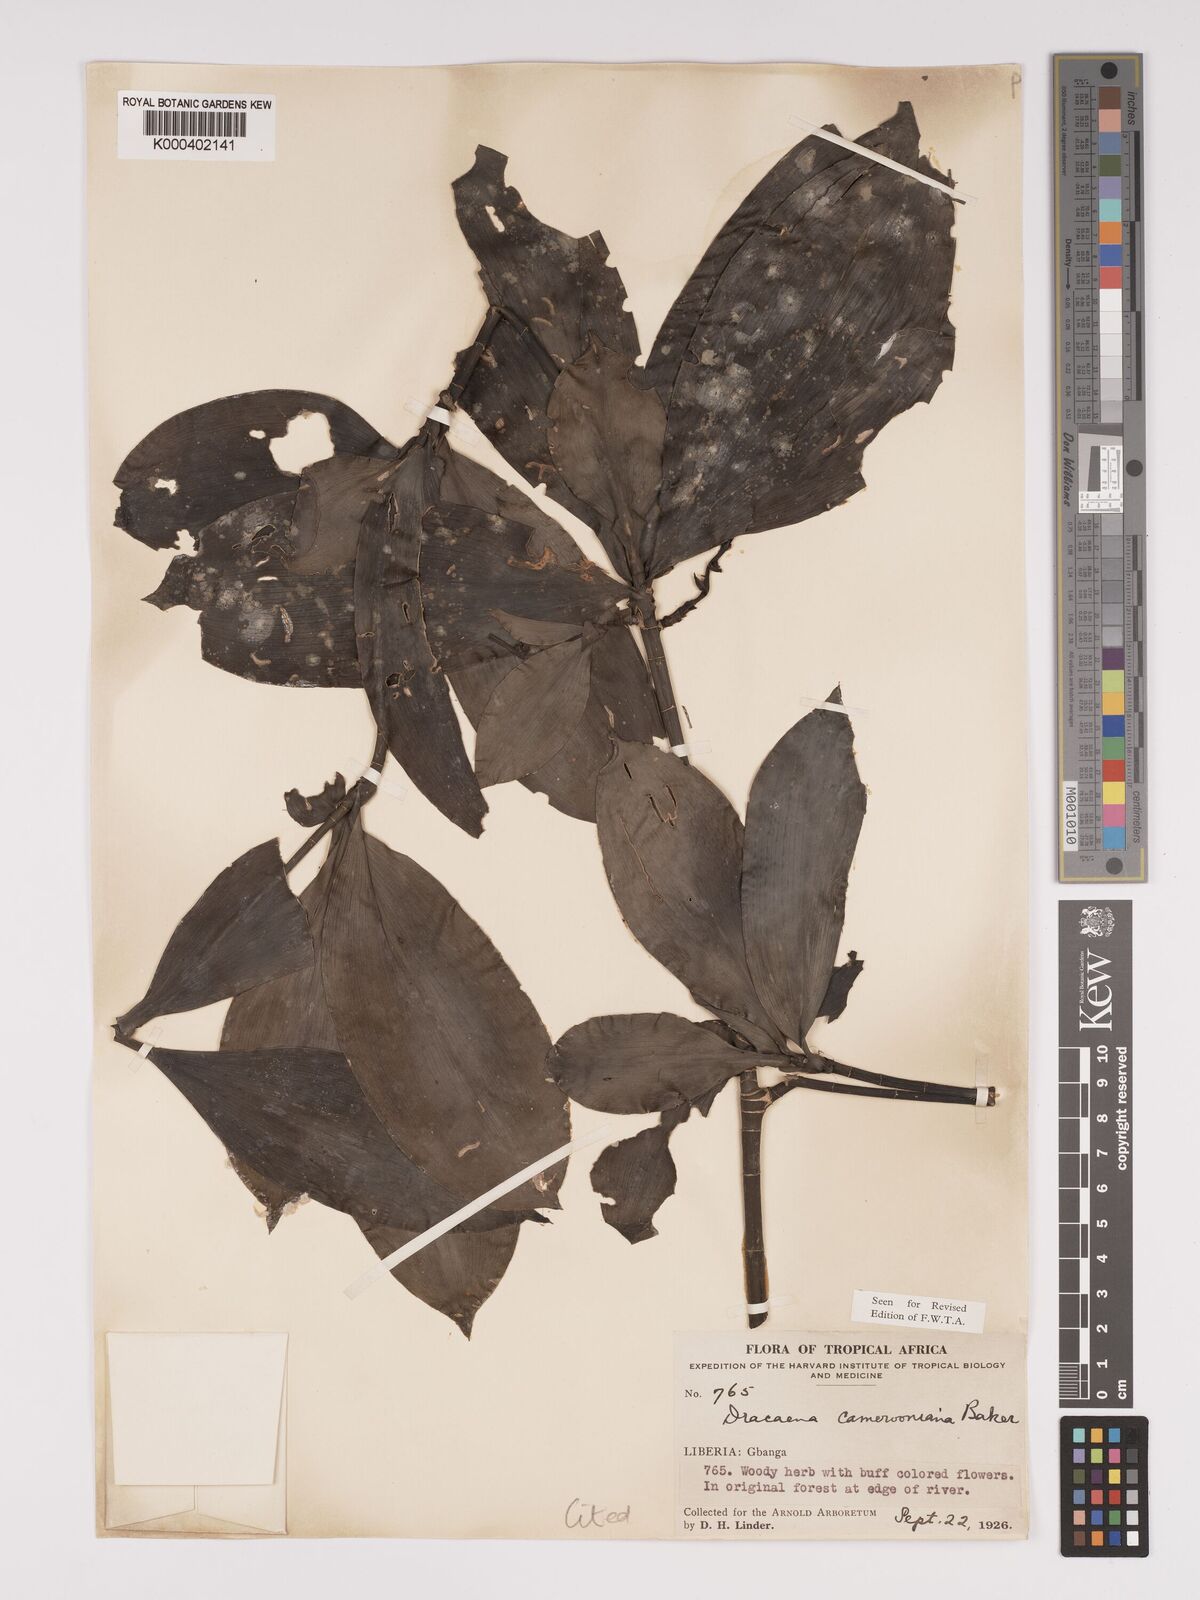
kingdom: Plantae
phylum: Tracheophyta
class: Liliopsida
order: Asparagales
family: Asparagaceae
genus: Dracaena
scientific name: Dracaena camerooniana
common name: Dragon tree
